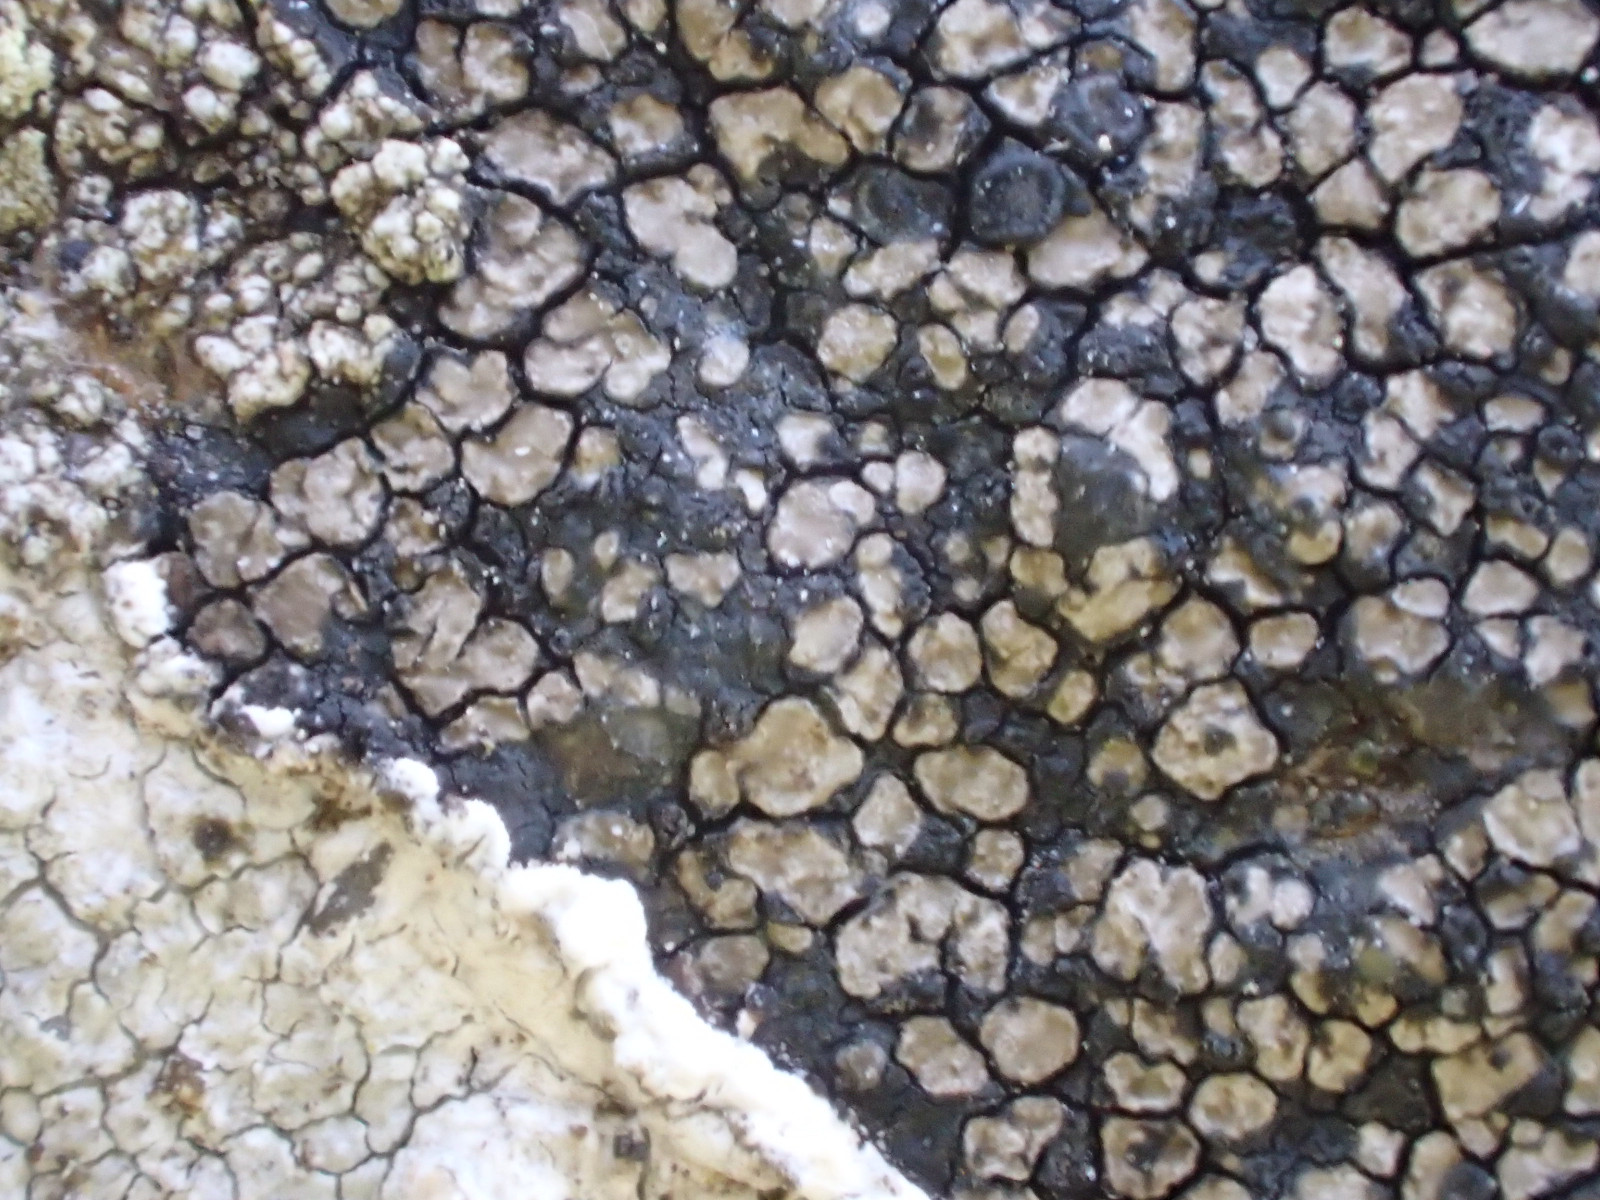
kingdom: Fungi
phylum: Ascomycota
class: Lecanoromycetes
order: Lecideales
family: Lecideaceae
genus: Lecidea
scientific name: Lecidea fuscoatra
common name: rudret skivelav
